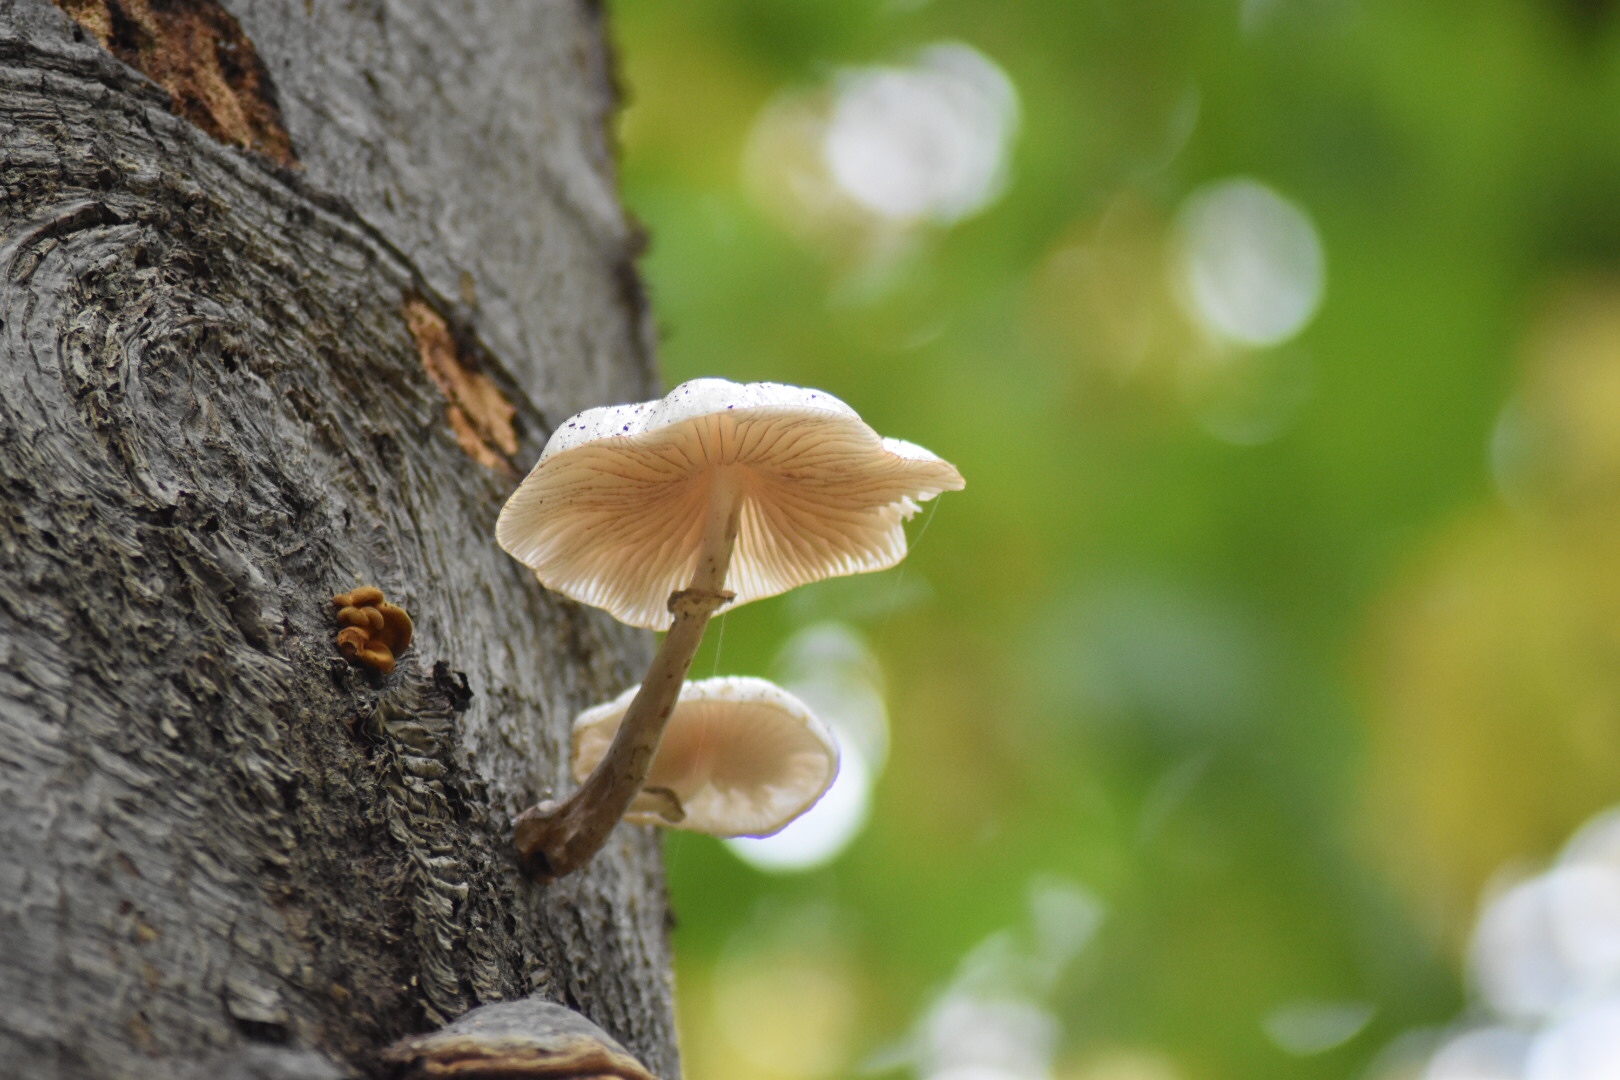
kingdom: Fungi
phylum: Basidiomycota
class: Agaricomycetes
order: Agaricales
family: Physalacriaceae
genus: Mucidula
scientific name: Mucidula mucida
